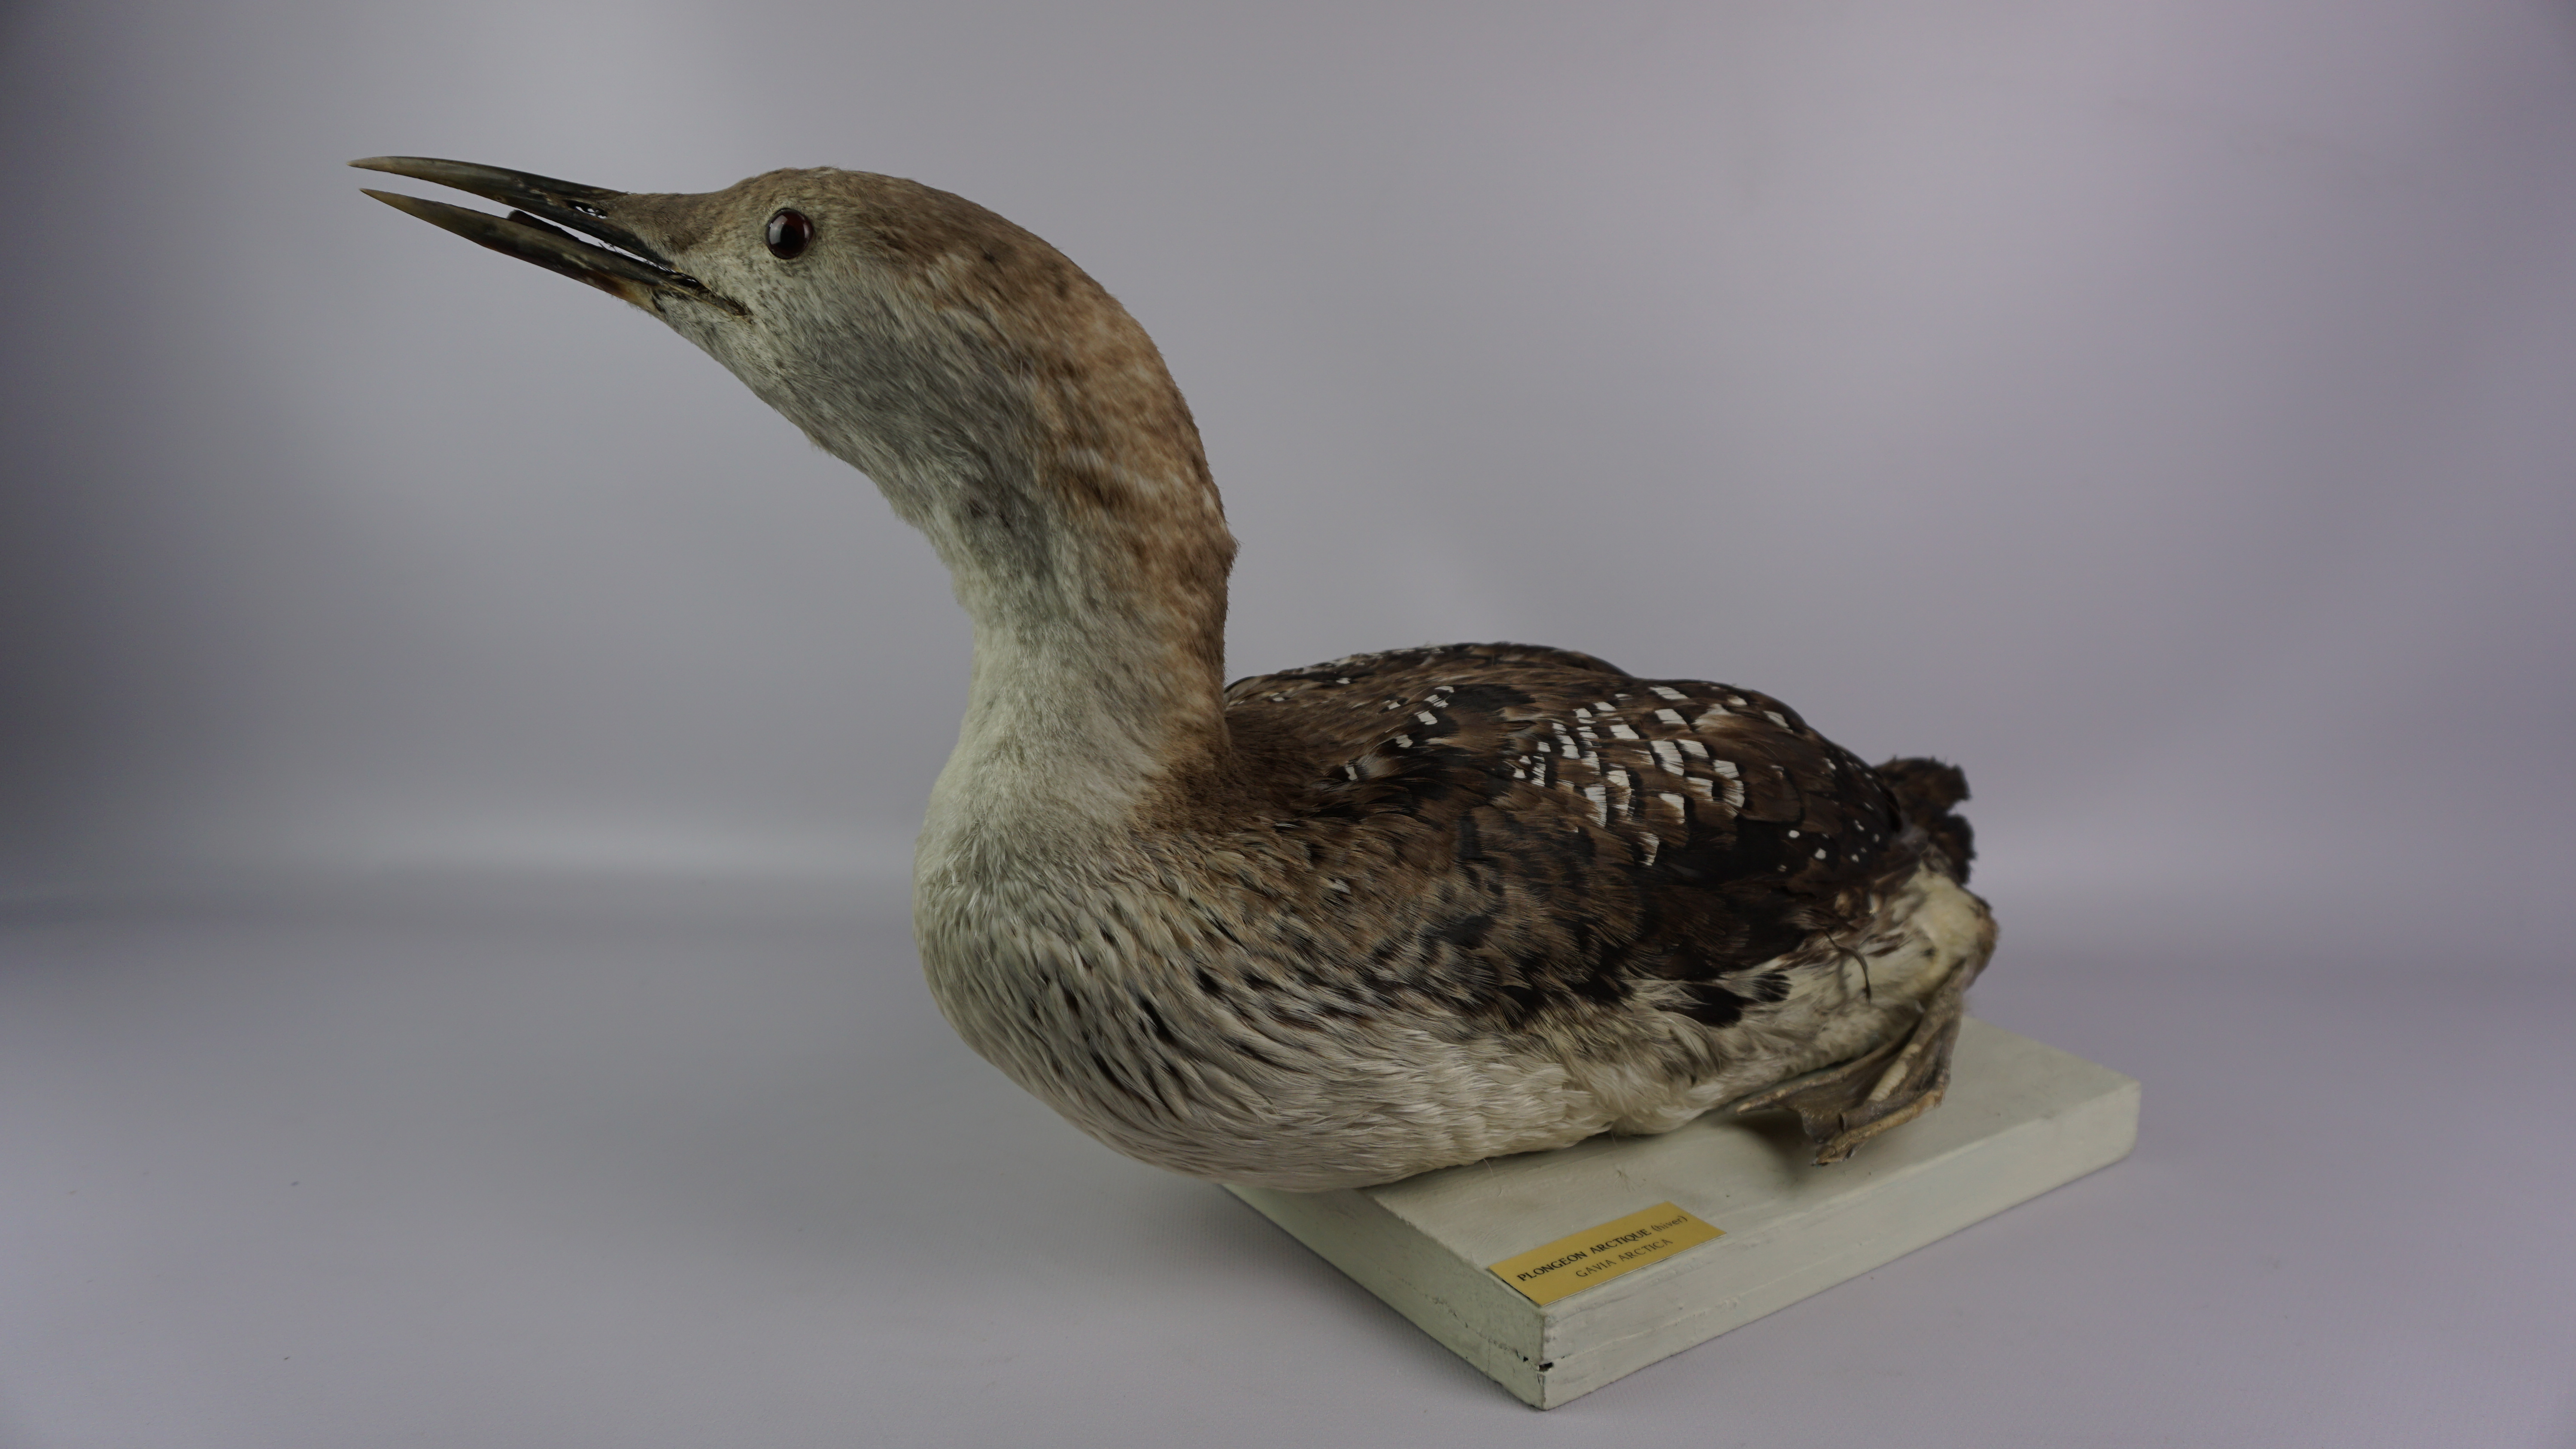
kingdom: Animalia
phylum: Chordata
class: Aves
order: Gaviiformes
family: Gaviidae
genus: Gavia
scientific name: Gavia arctica
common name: Black-throated loon
